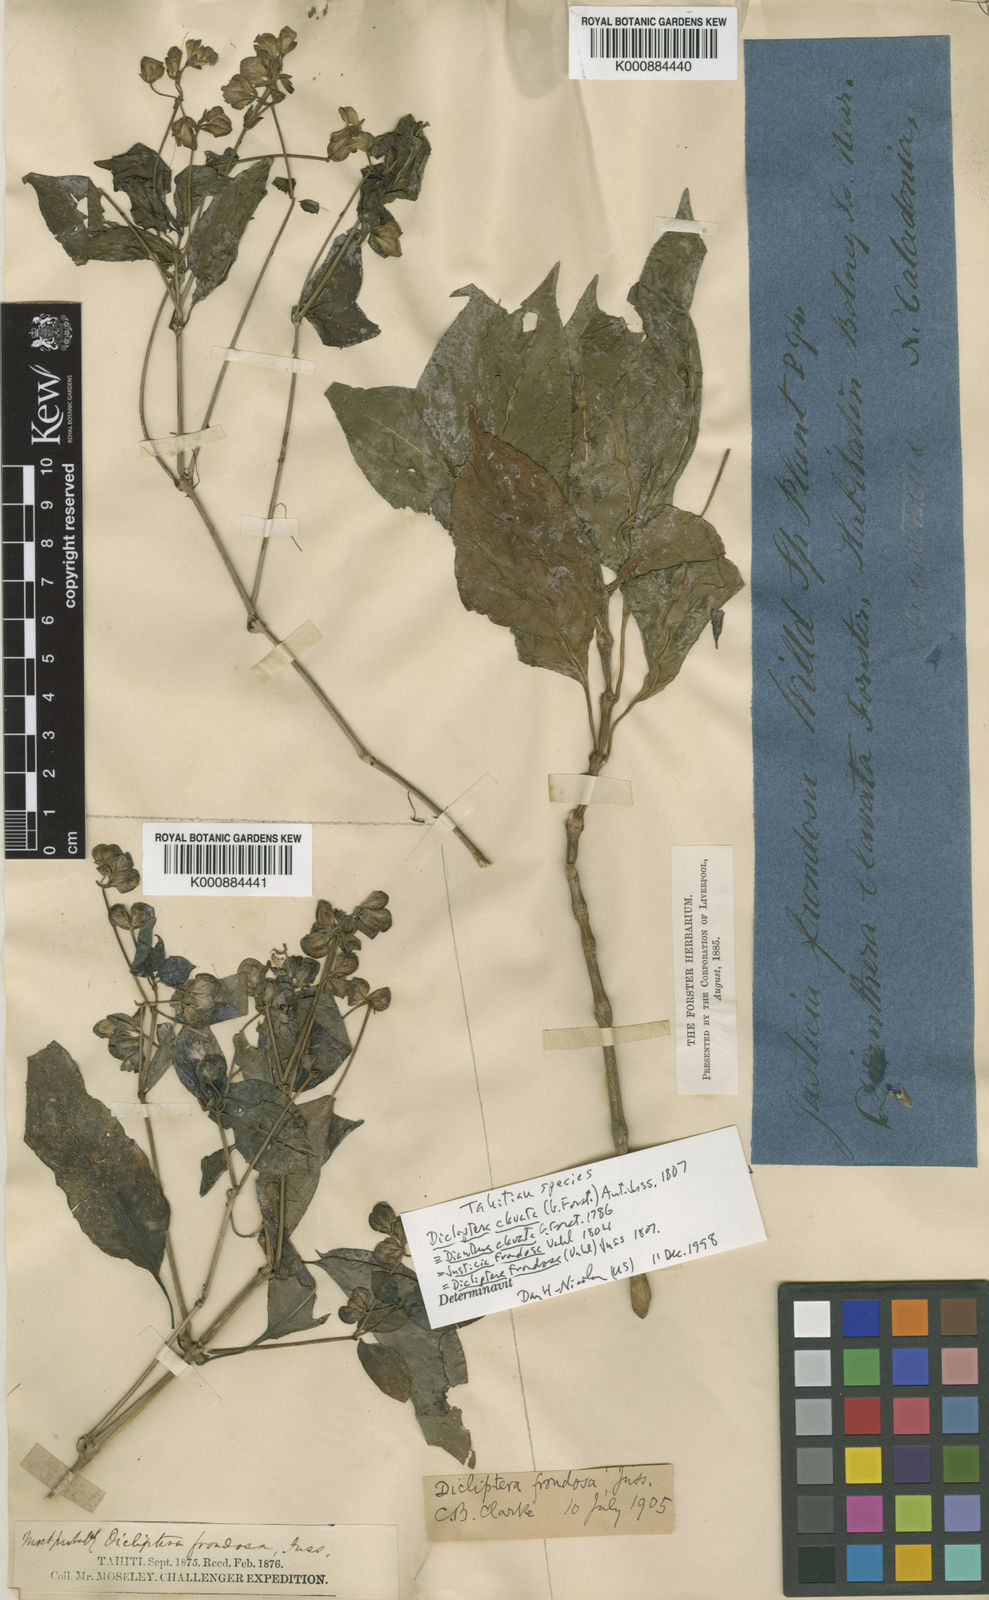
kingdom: Plantae
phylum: Tracheophyta
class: Magnoliopsida
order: Lamiales
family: Acanthaceae
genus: Dicliptera
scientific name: Dicliptera clavata
